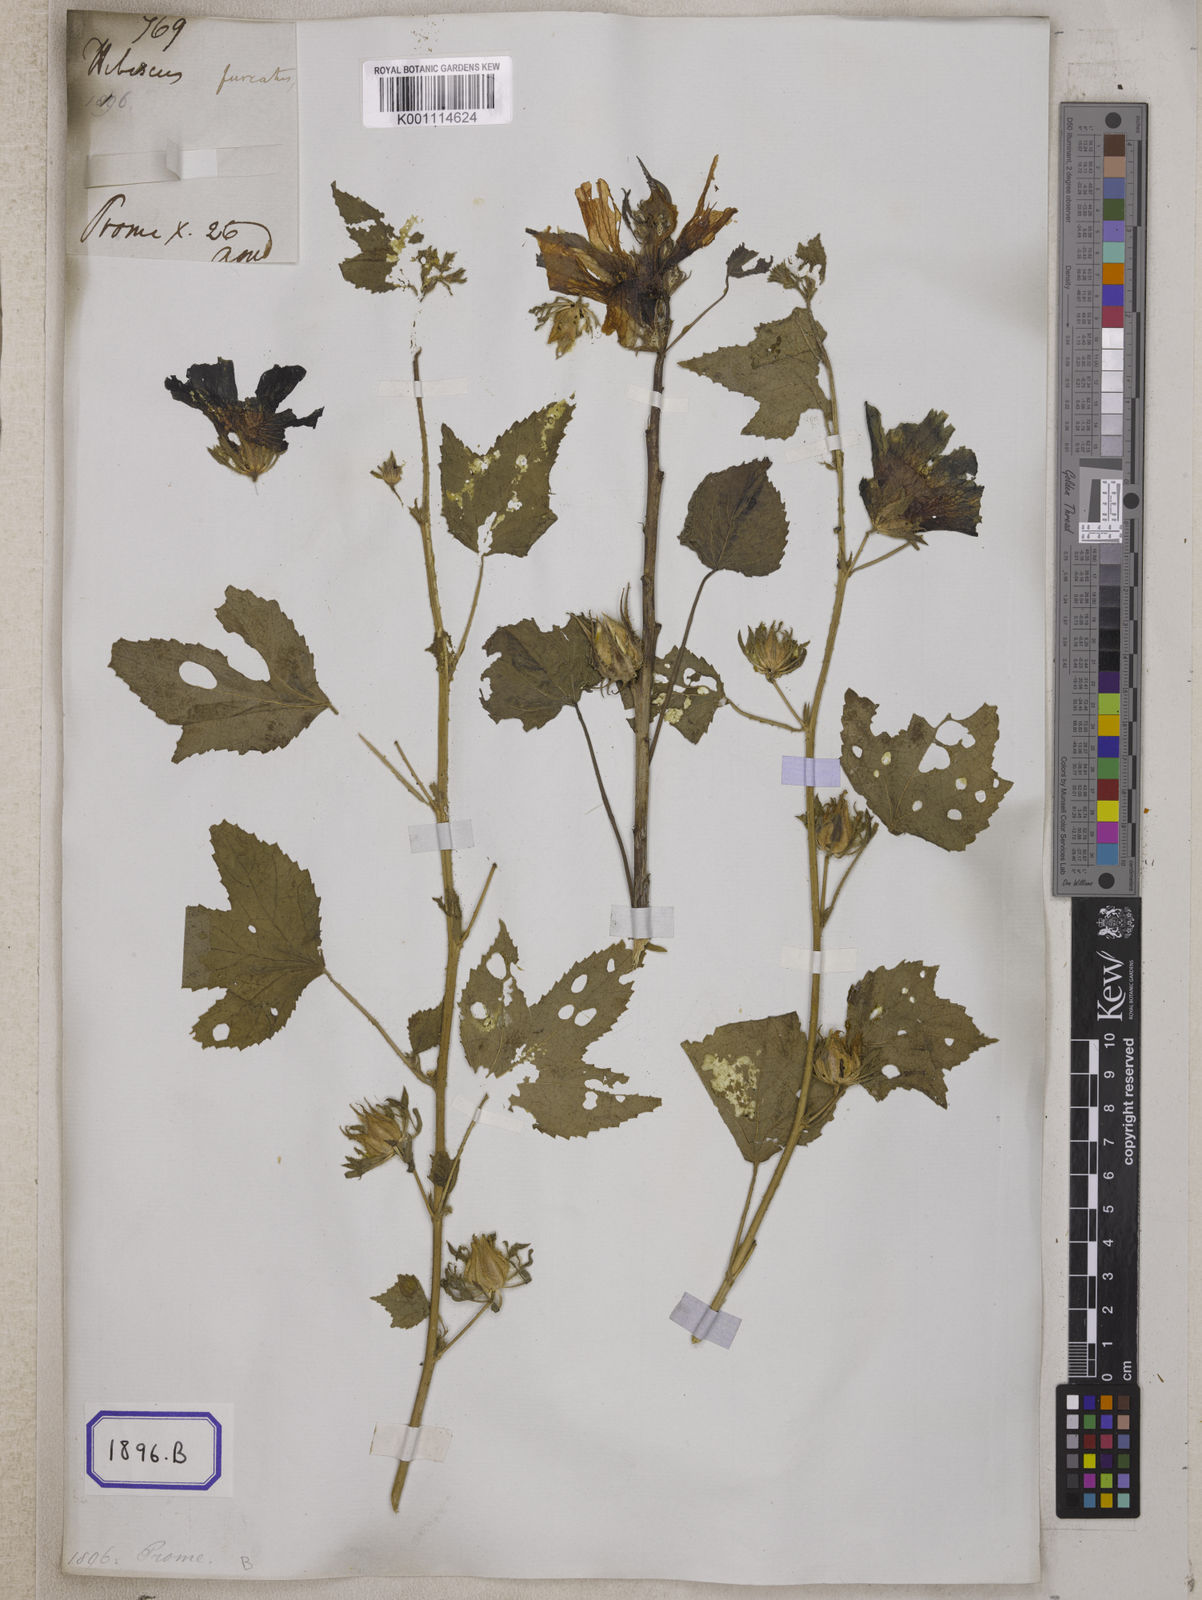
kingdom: Plantae
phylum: Tracheophyta
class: Magnoliopsida
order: Malvales
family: Malvaceae
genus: Hibiscus
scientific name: Hibiscus
